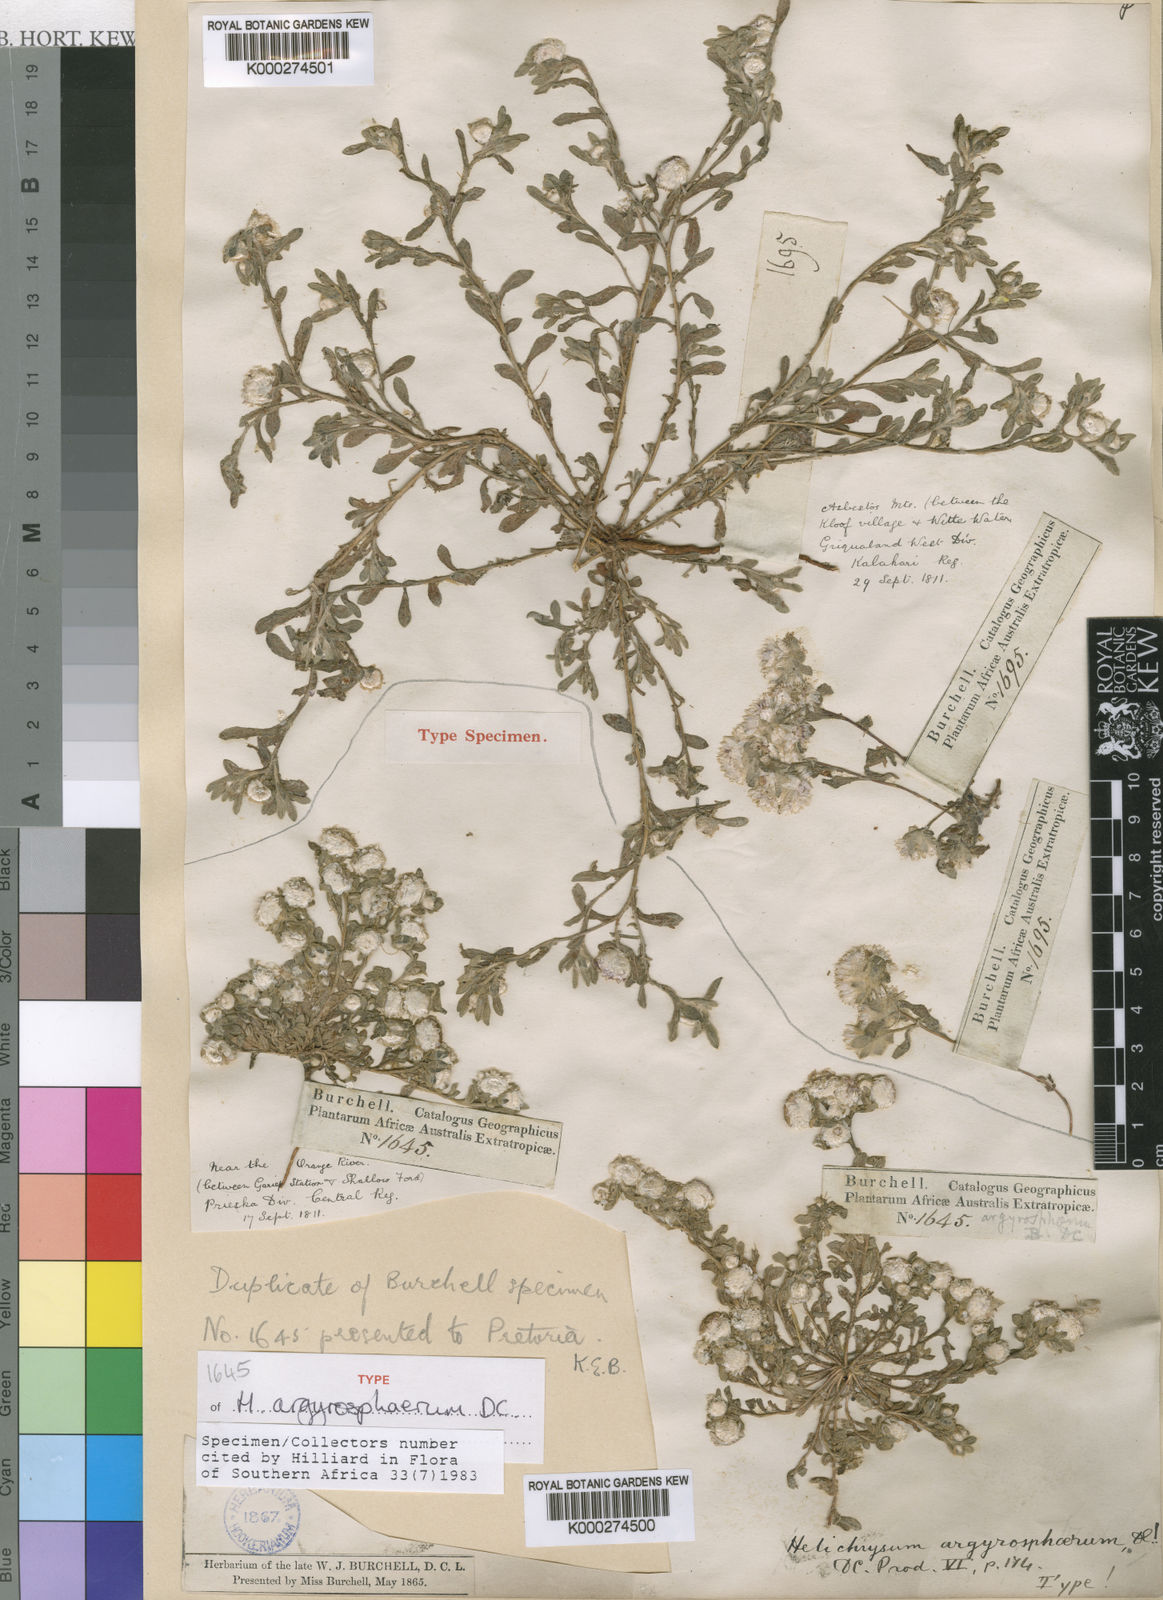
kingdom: Plantae
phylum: Tracheophyta
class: Magnoliopsida
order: Asterales
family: Asteraceae
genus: Helichrysum
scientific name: Helichrysum argyrosphaerum
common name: Wild everlasting
